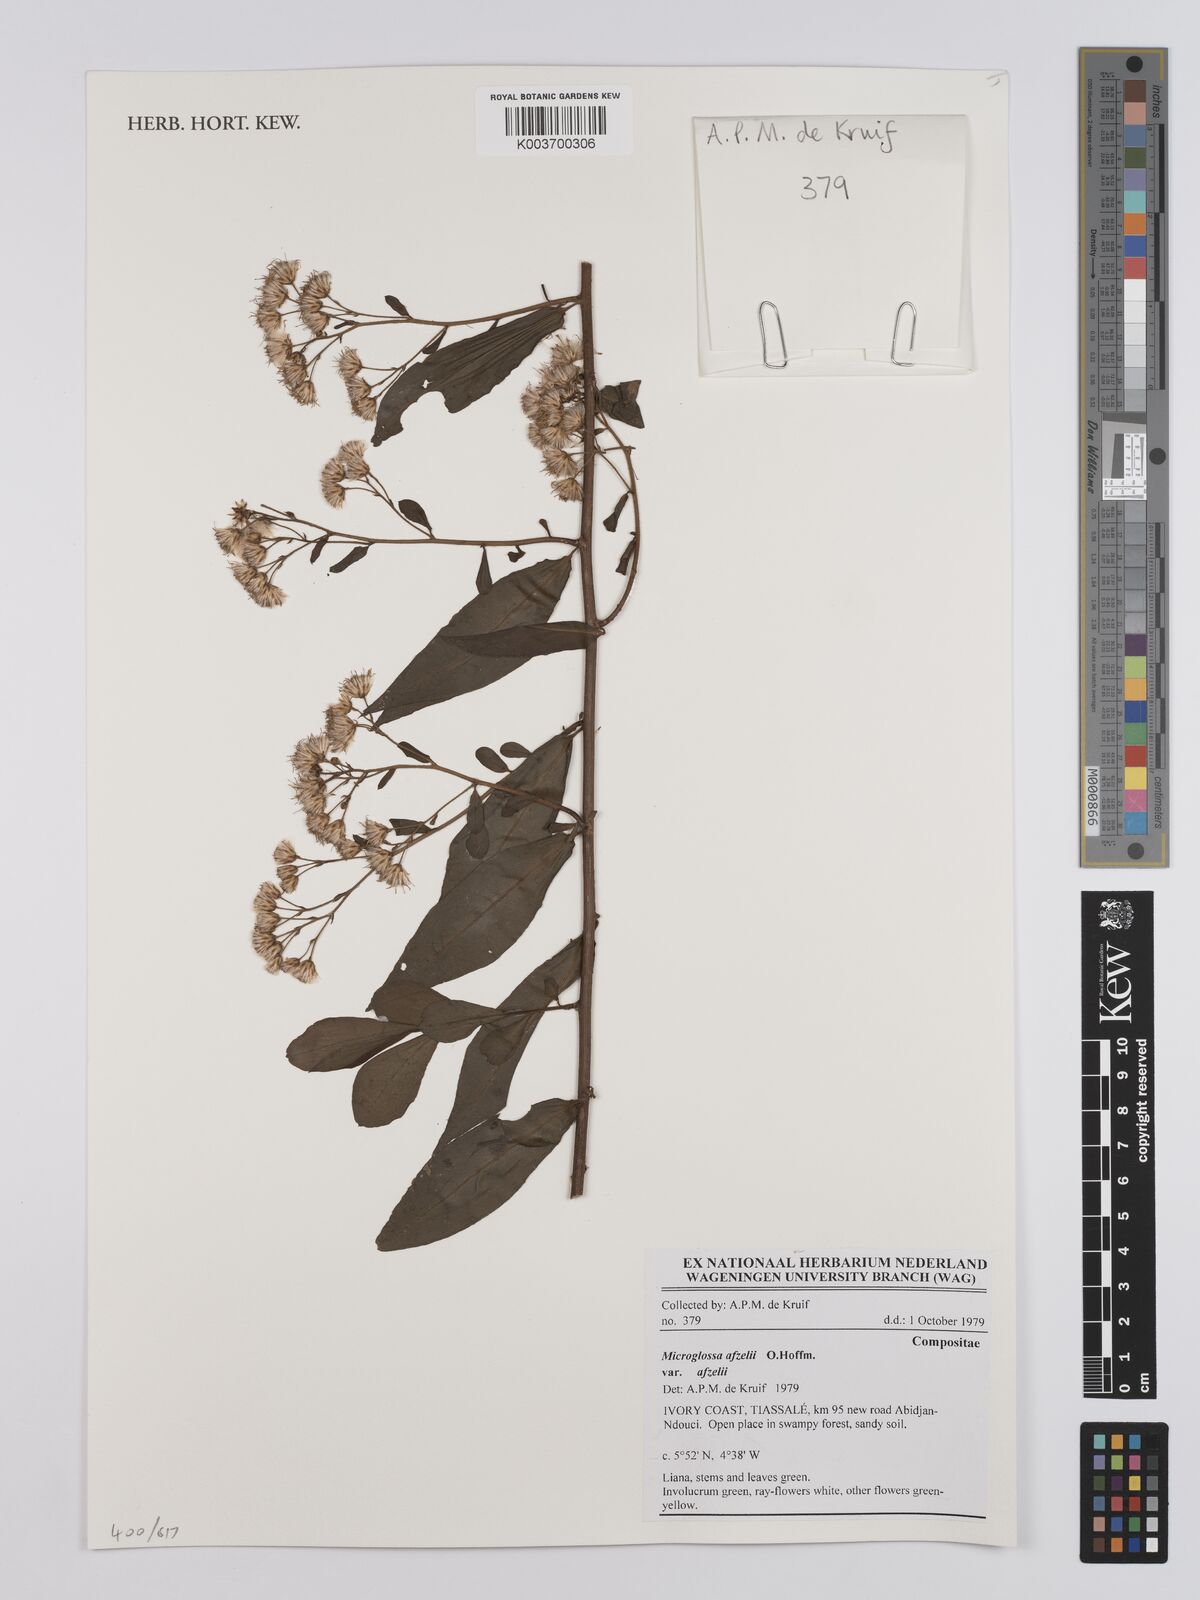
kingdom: Plantae
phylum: Tracheophyta
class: Magnoliopsida
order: Asterales
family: Asteraceae
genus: Microglossa
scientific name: Microglossa afzelii
